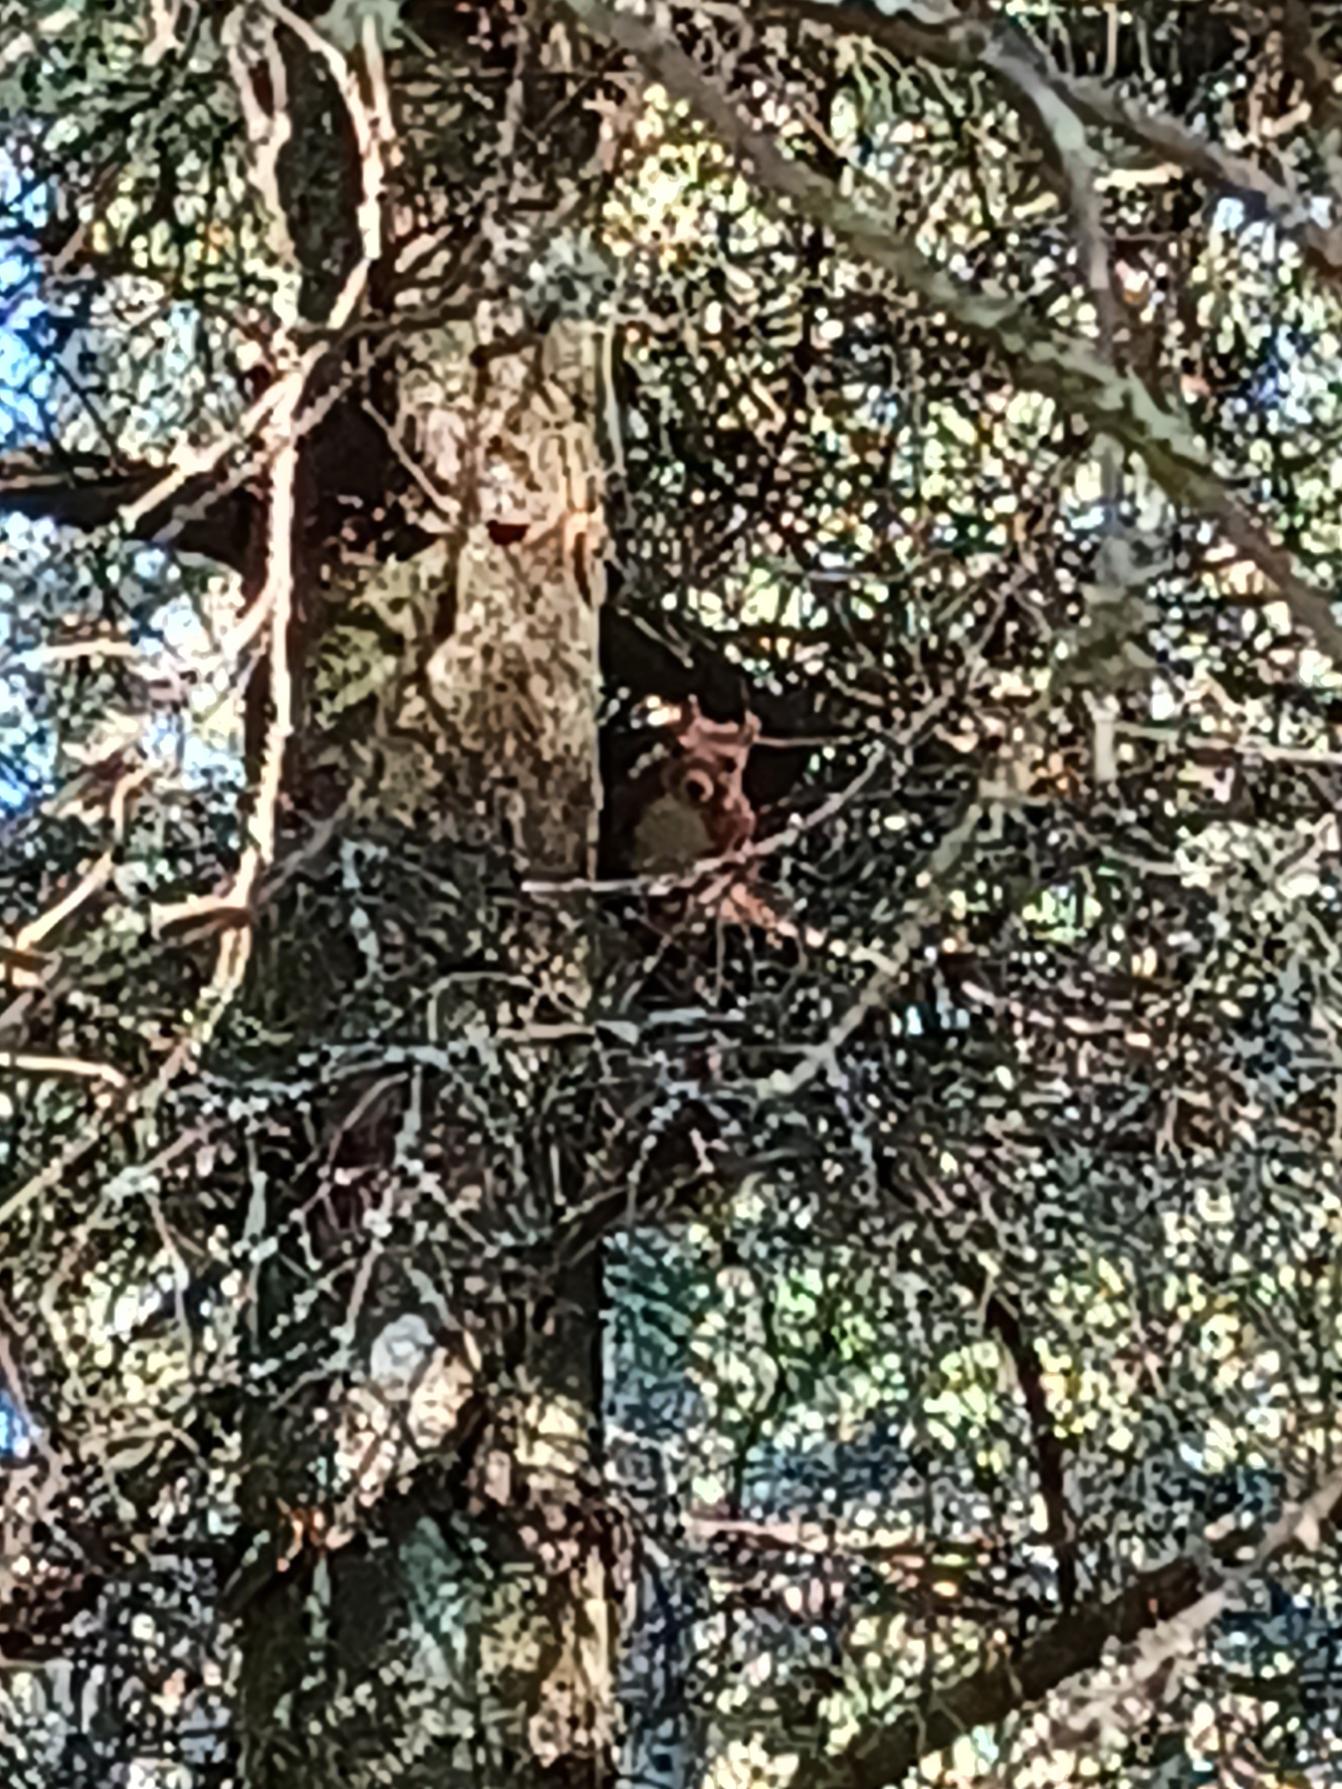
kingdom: Animalia
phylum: Chordata
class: Mammalia
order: Rodentia
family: Sciuridae
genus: Sciurus
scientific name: Sciurus vulgaris
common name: Egern
